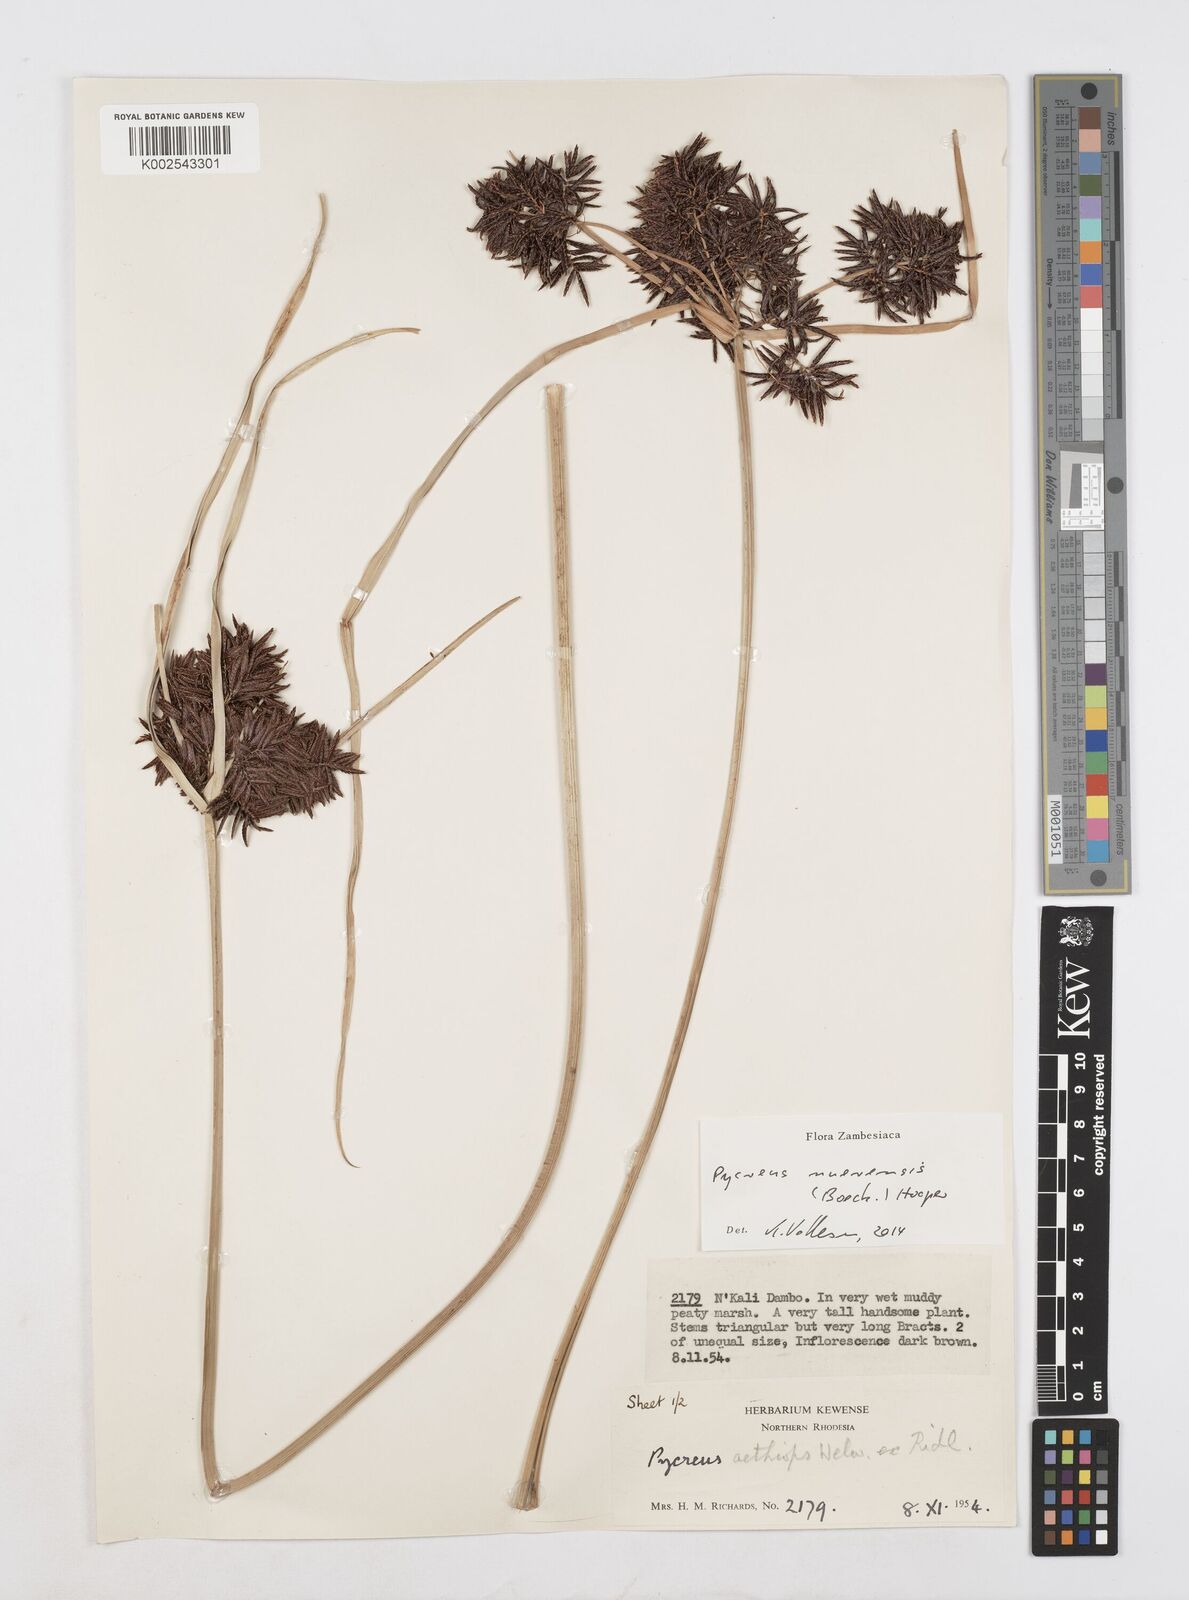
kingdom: Plantae
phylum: Tracheophyta
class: Liliopsida
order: Poales
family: Cyperaceae
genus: Cyperus
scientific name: Cyperus nuerensis
